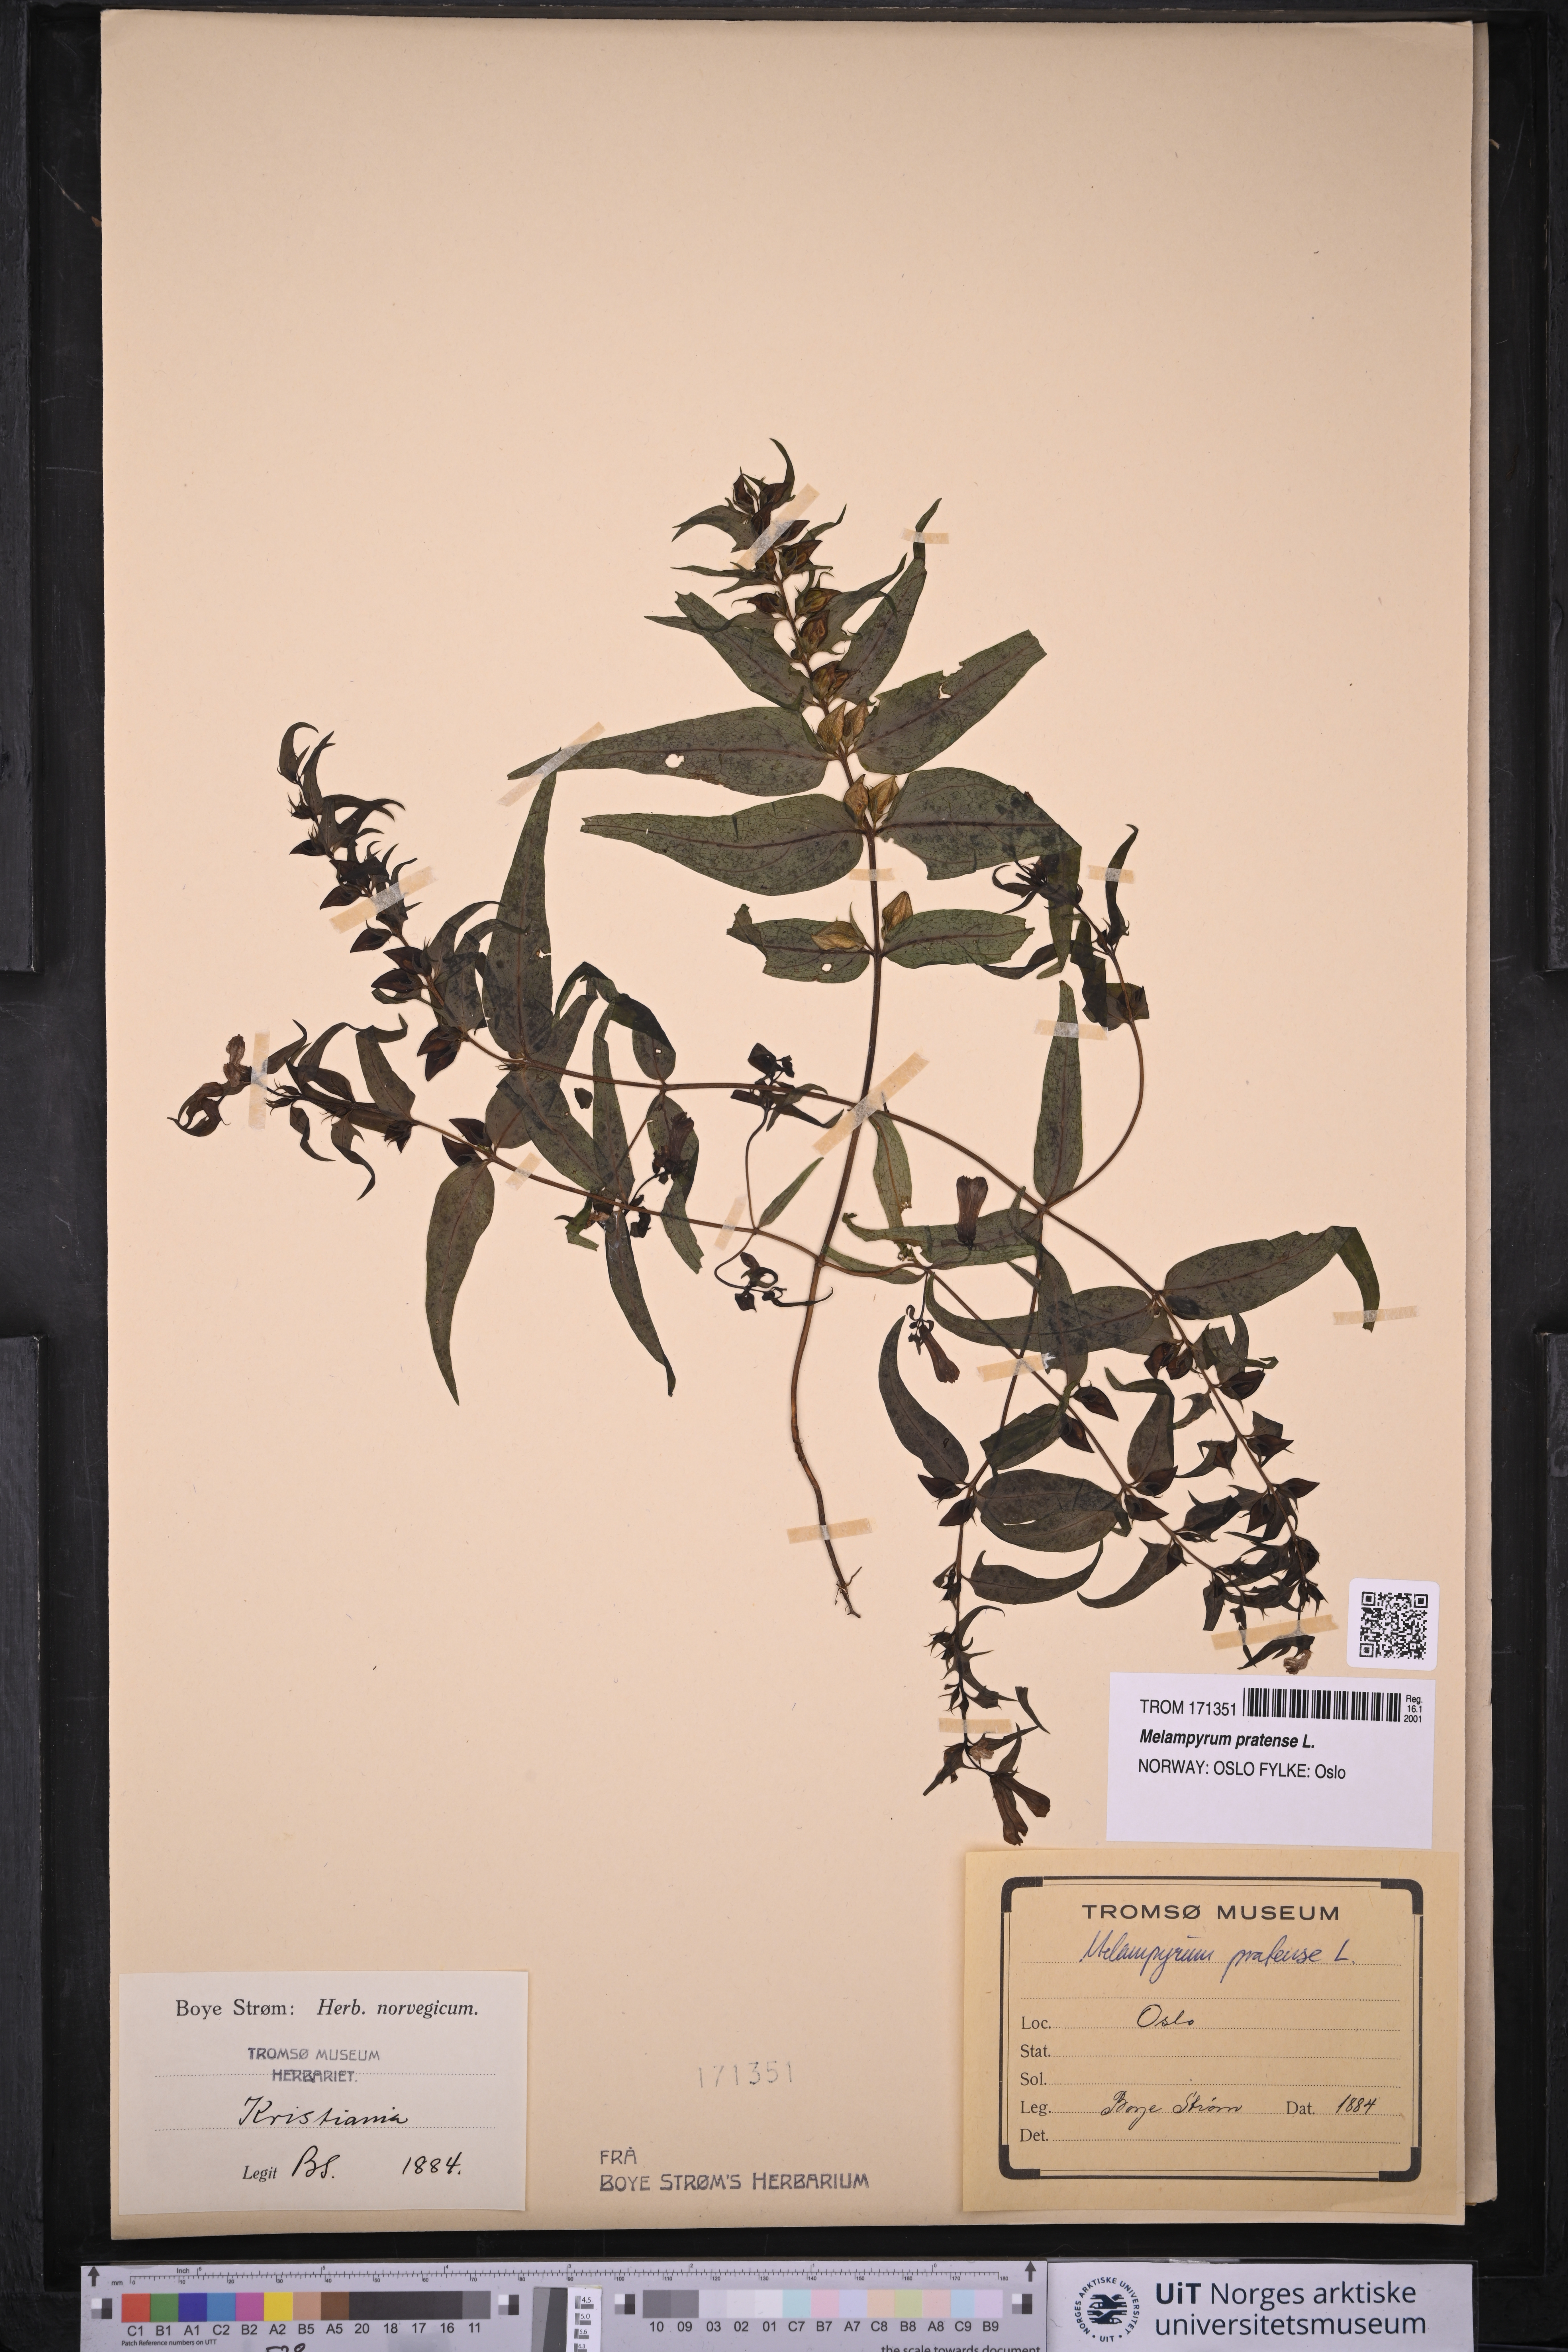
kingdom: Plantae
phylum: Tracheophyta
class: Magnoliopsida
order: Lamiales
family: Orobanchaceae
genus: Melampyrum
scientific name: Melampyrum pratense
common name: Common cow-wheat
